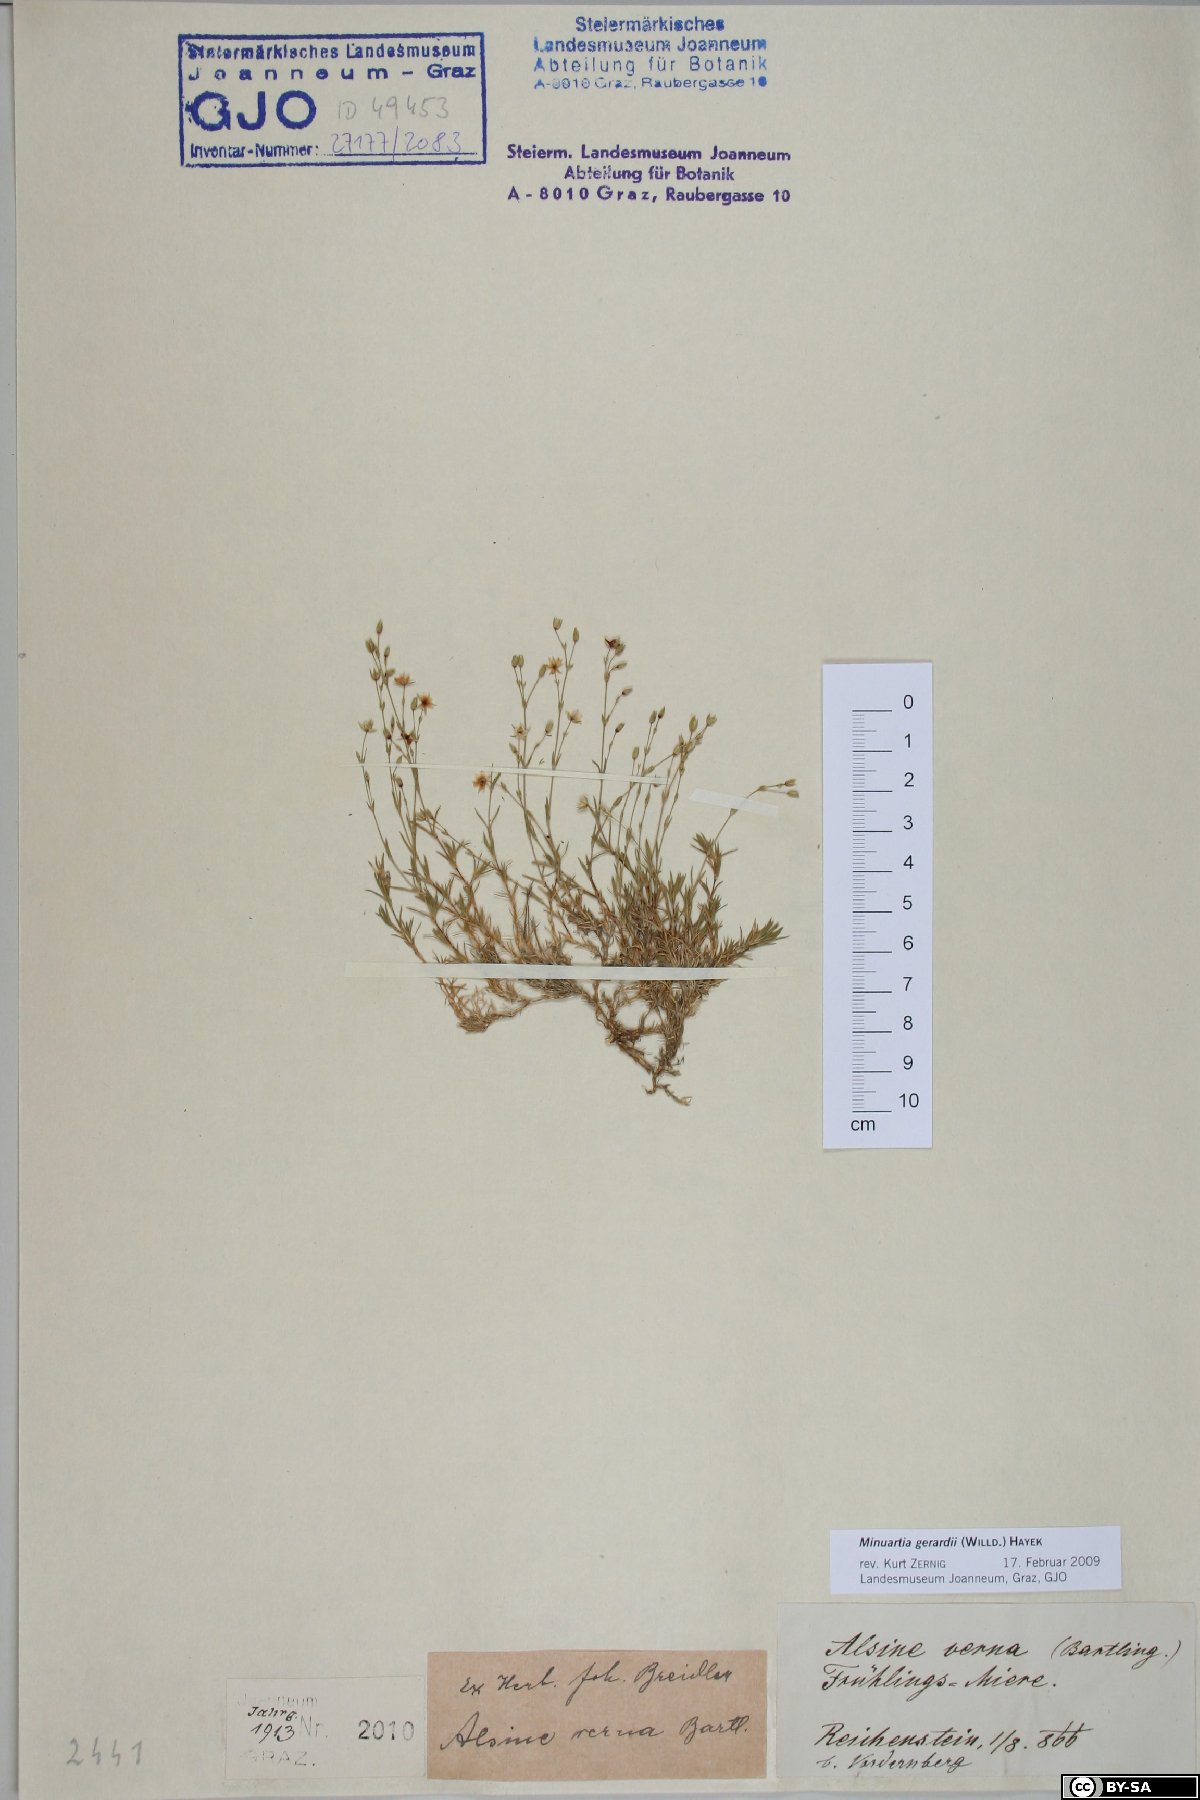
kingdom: Plantae
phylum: Tracheophyta
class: Magnoliopsida
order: Caryophyllales
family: Caryophyllaceae
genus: Sabulina
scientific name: Sabulina verna
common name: Spring sandwort
